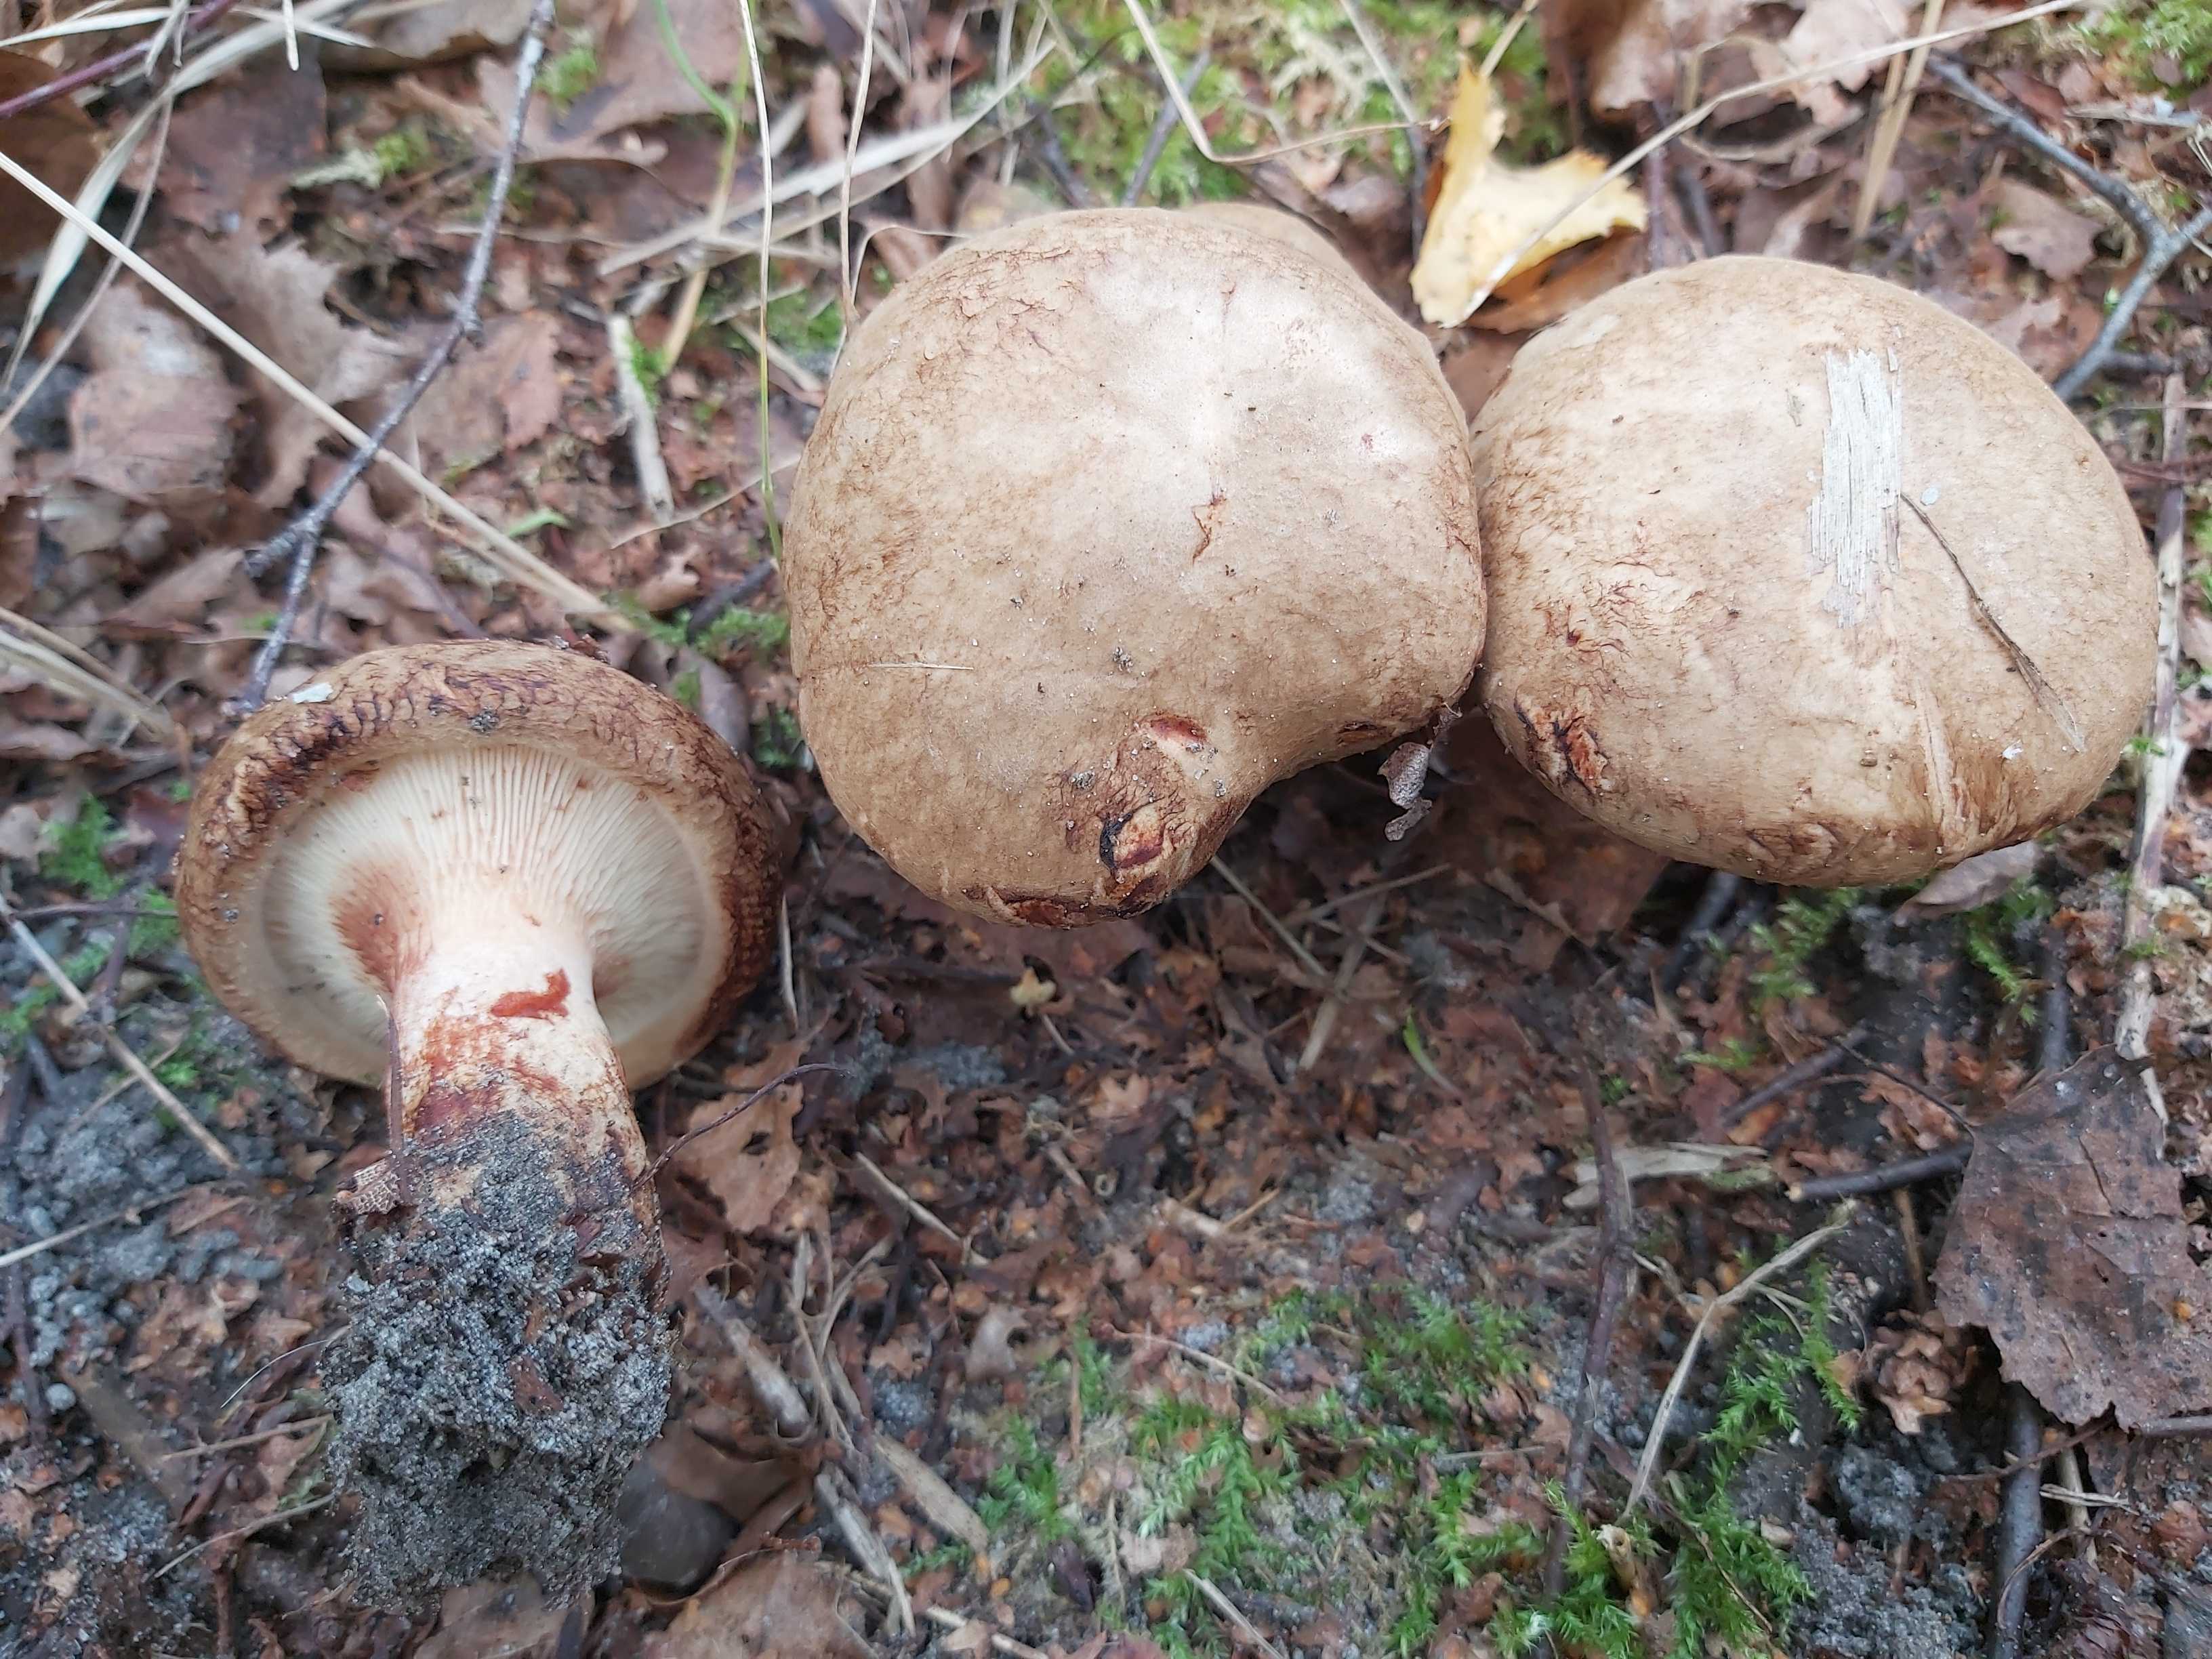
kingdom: Fungi
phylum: Basidiomycota
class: Agaricomycetes
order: Boletales
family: Paxillaceae
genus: Paxillus
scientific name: Paxillus
